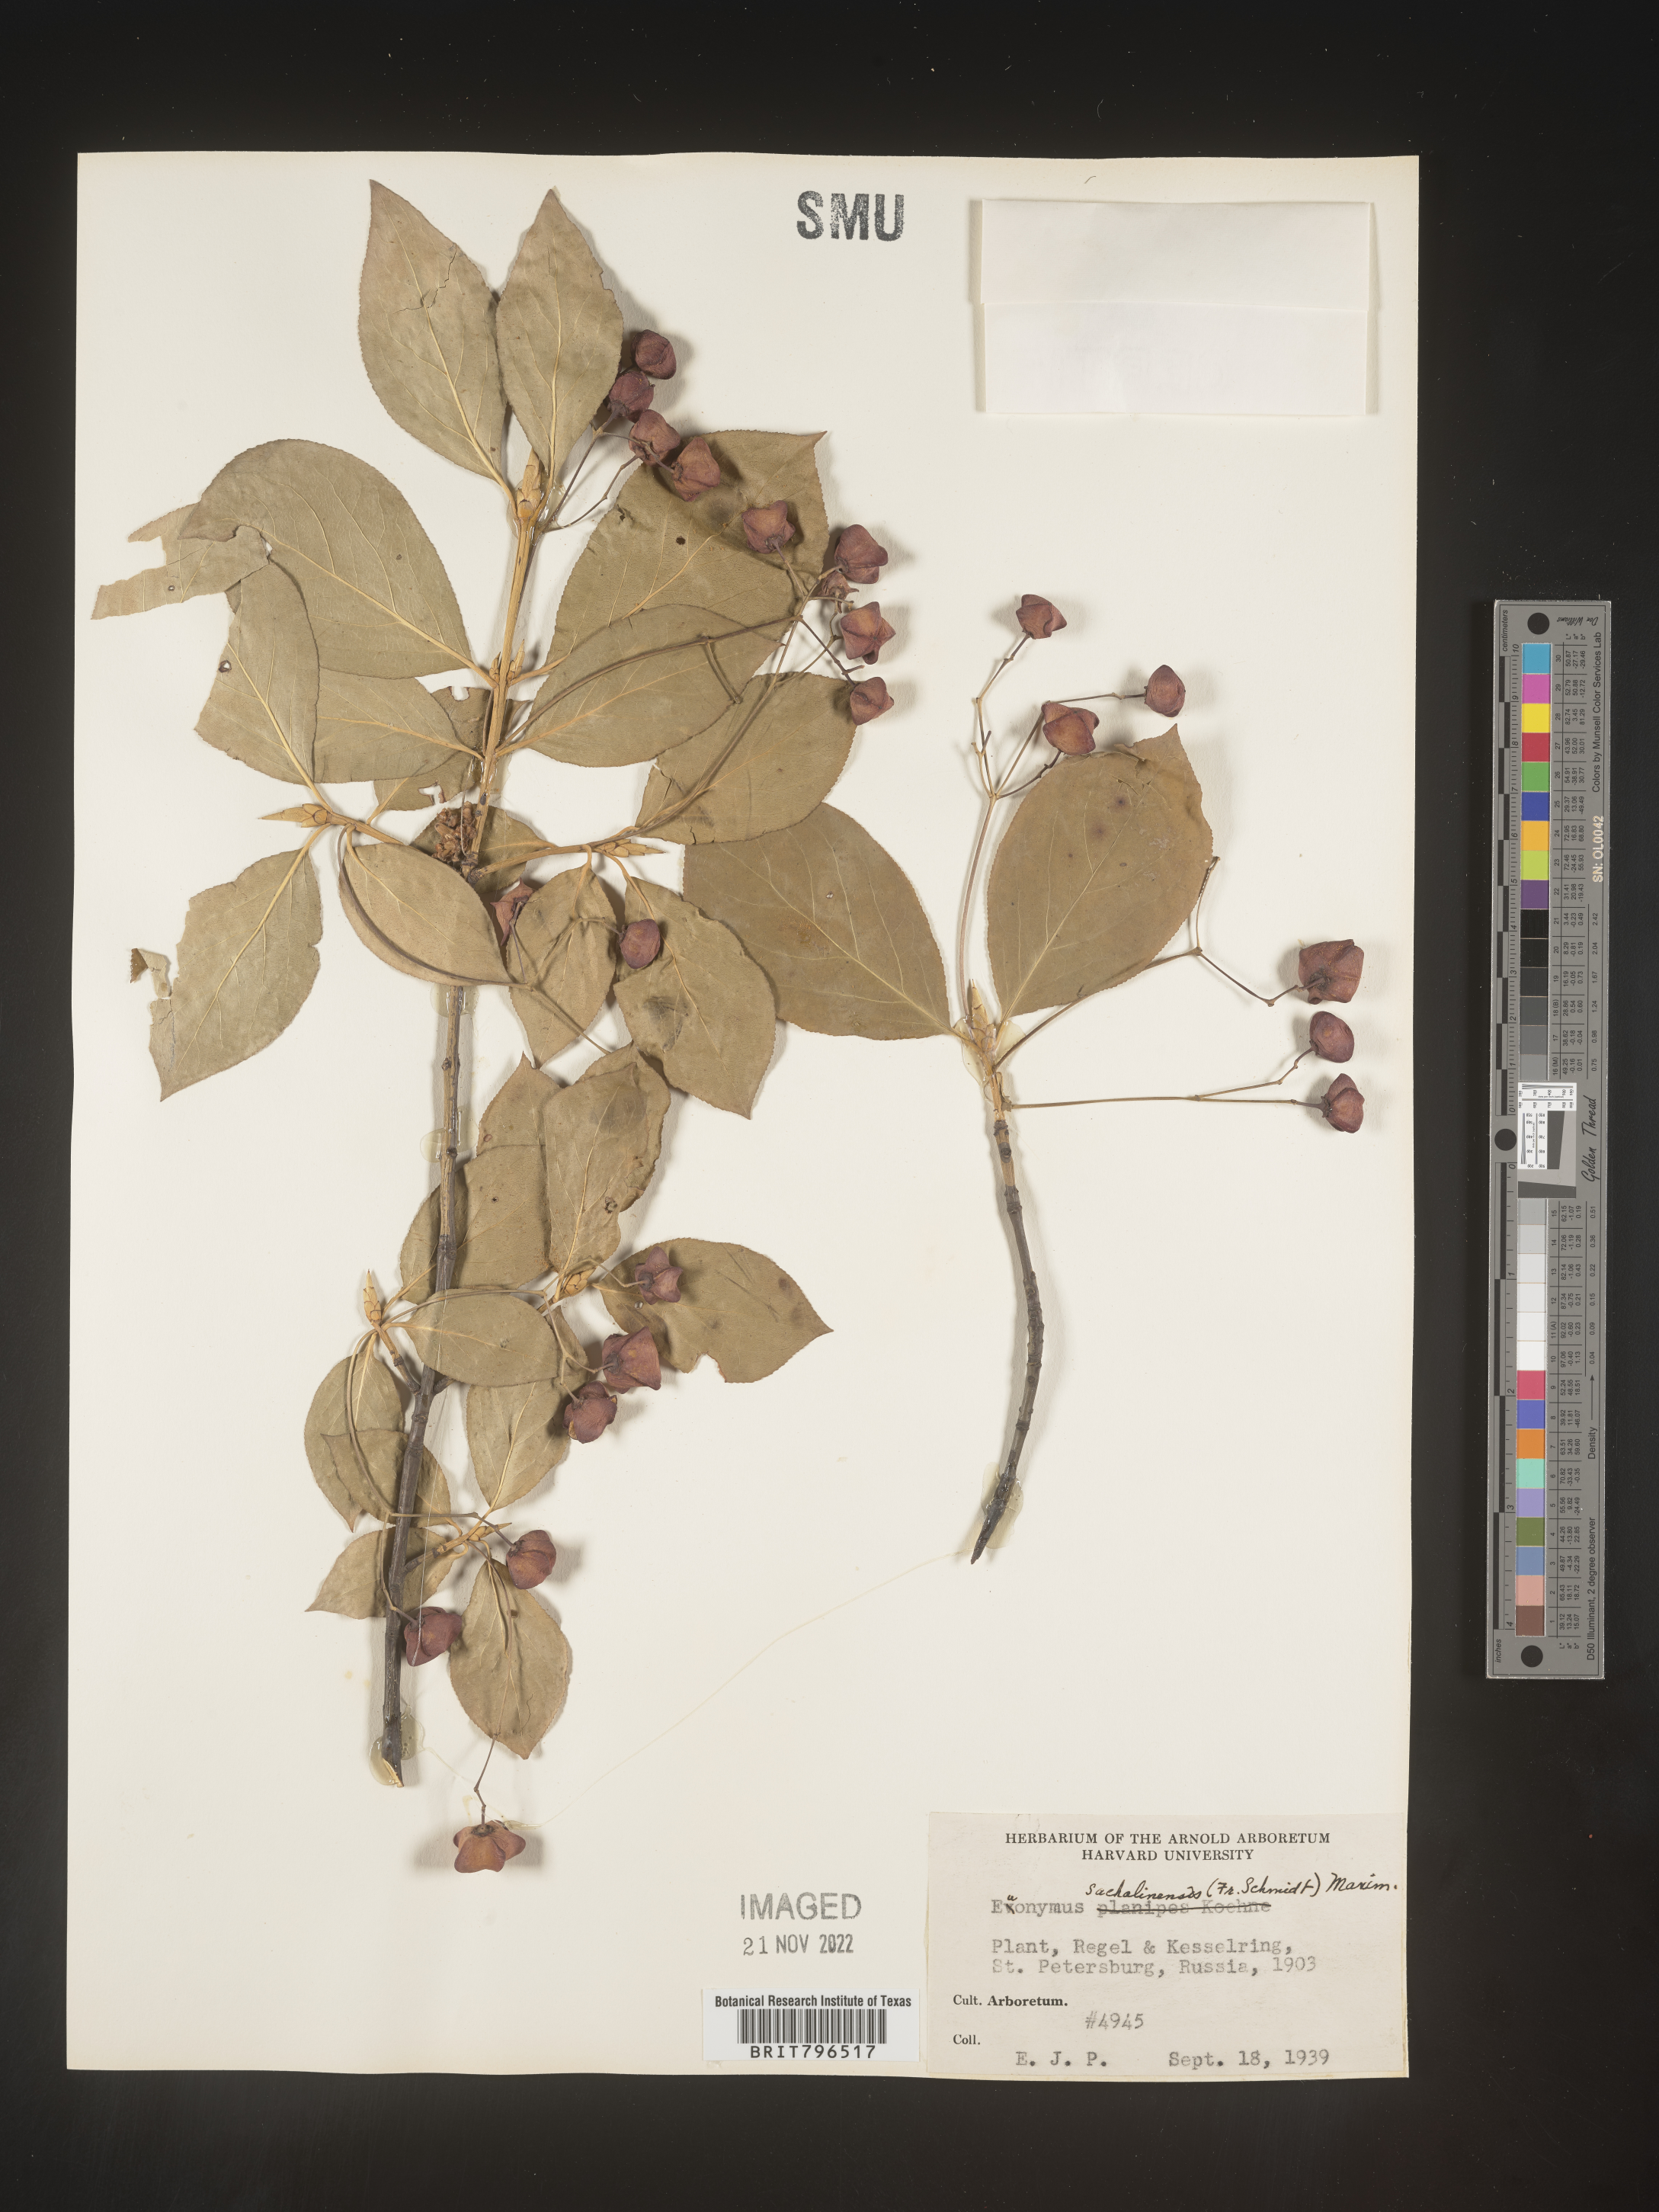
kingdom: Plantae
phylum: Tracheophyta
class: Magnoliopsida
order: Celastrales
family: Celastraceae
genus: Euonymus
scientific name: Euonymus
